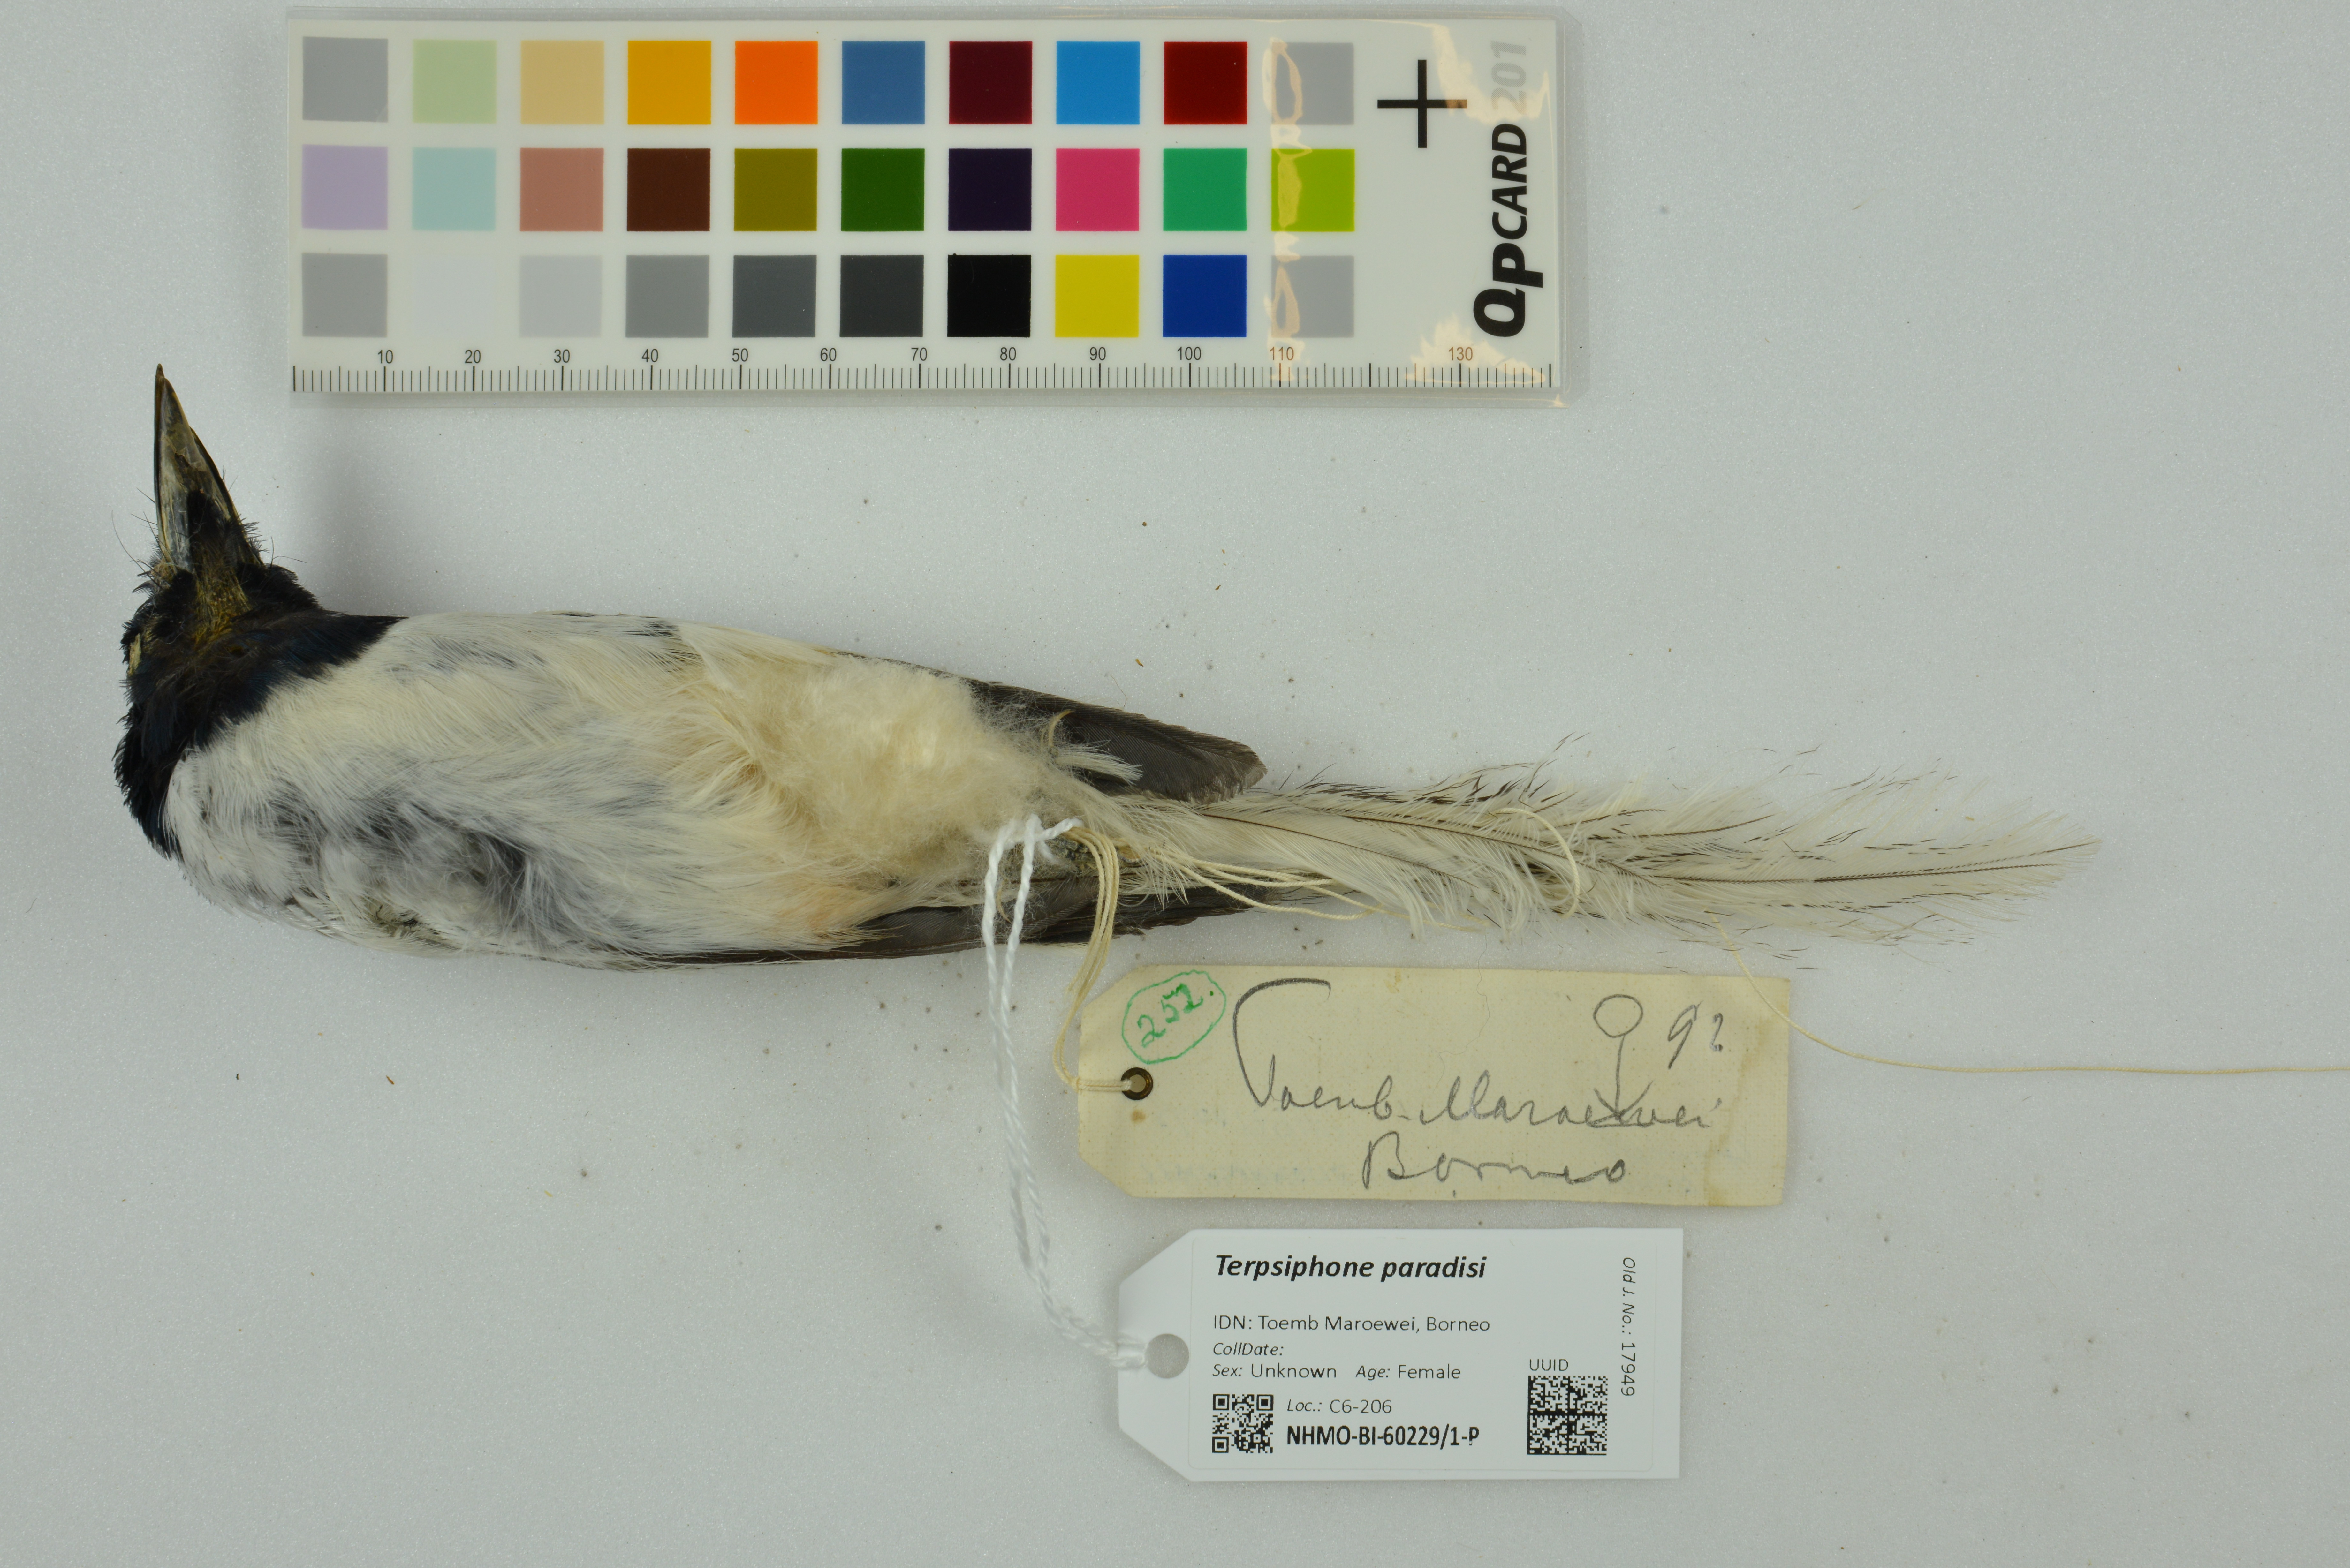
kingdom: Animalia
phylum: Chordata
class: Aves
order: Passeriformes
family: Monarchidae
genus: Terpsiphone
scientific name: Terpsiphone paradisi
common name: Indian paradise flycatcher
